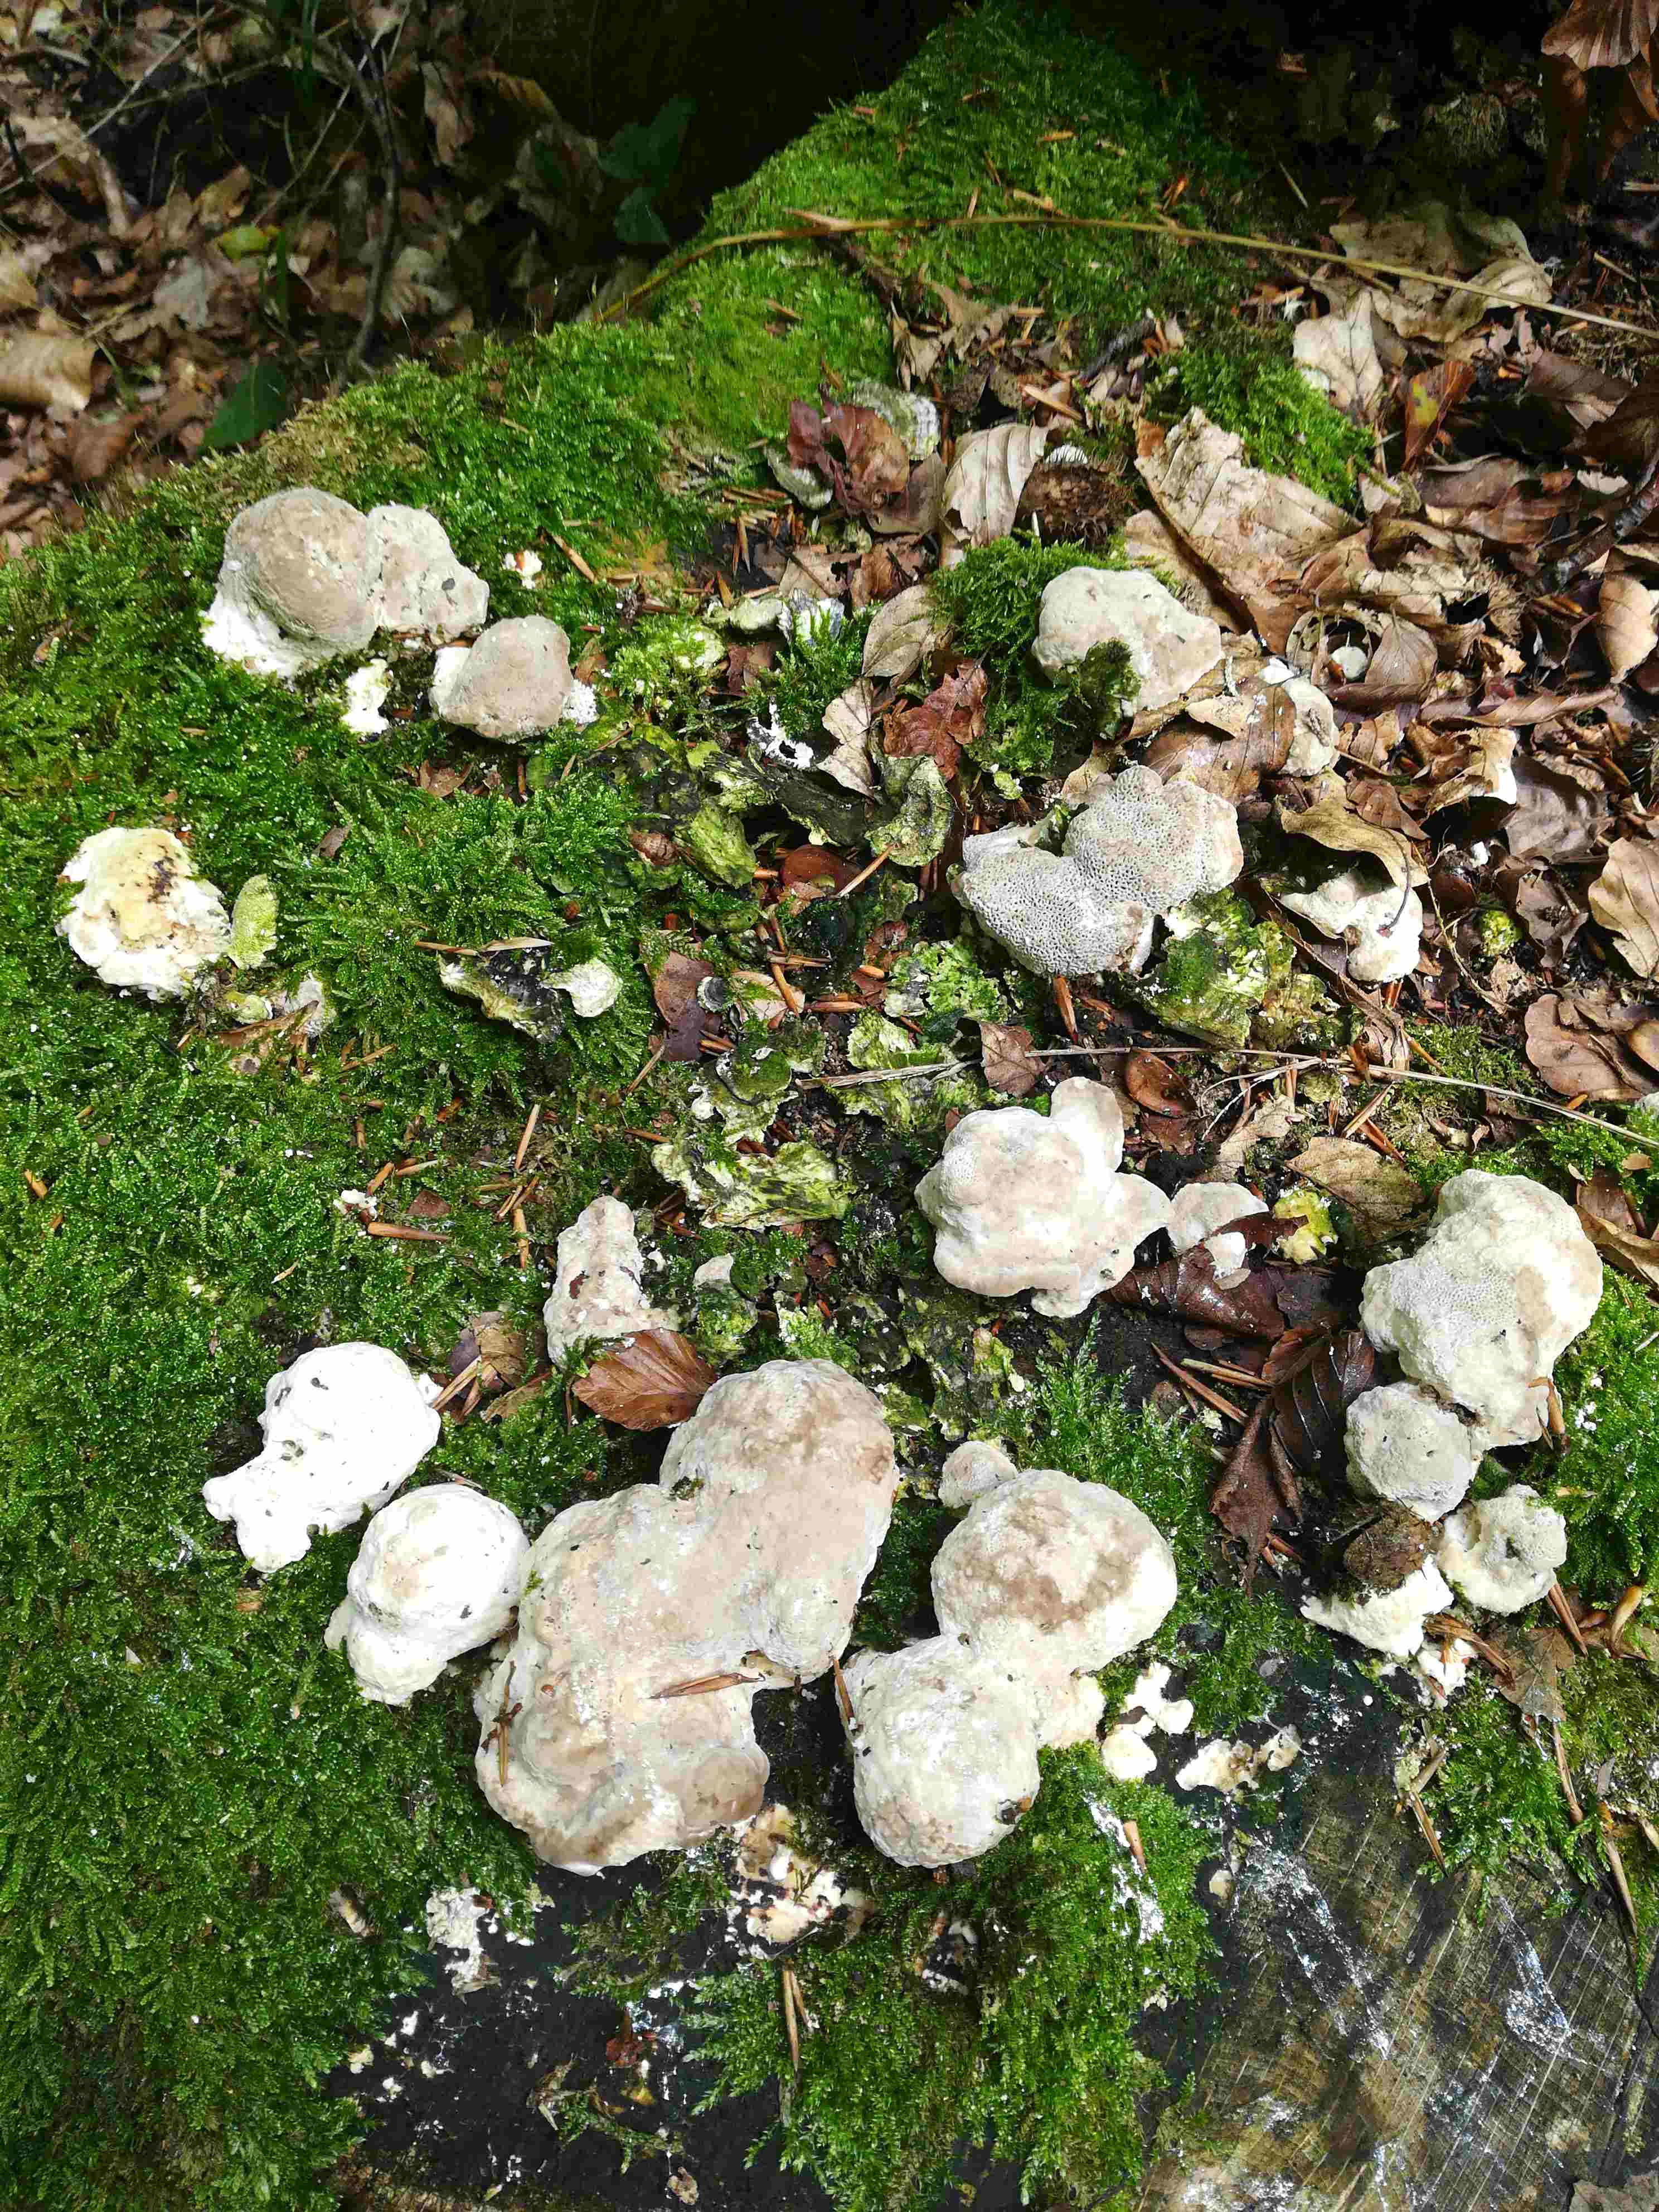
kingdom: Fungi
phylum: Basidiomycota
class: Agaricomycetes
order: Polyporales
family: Polyporaceae
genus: Trametes
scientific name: Trametes gibbosa
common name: puklet læderporesvamp
